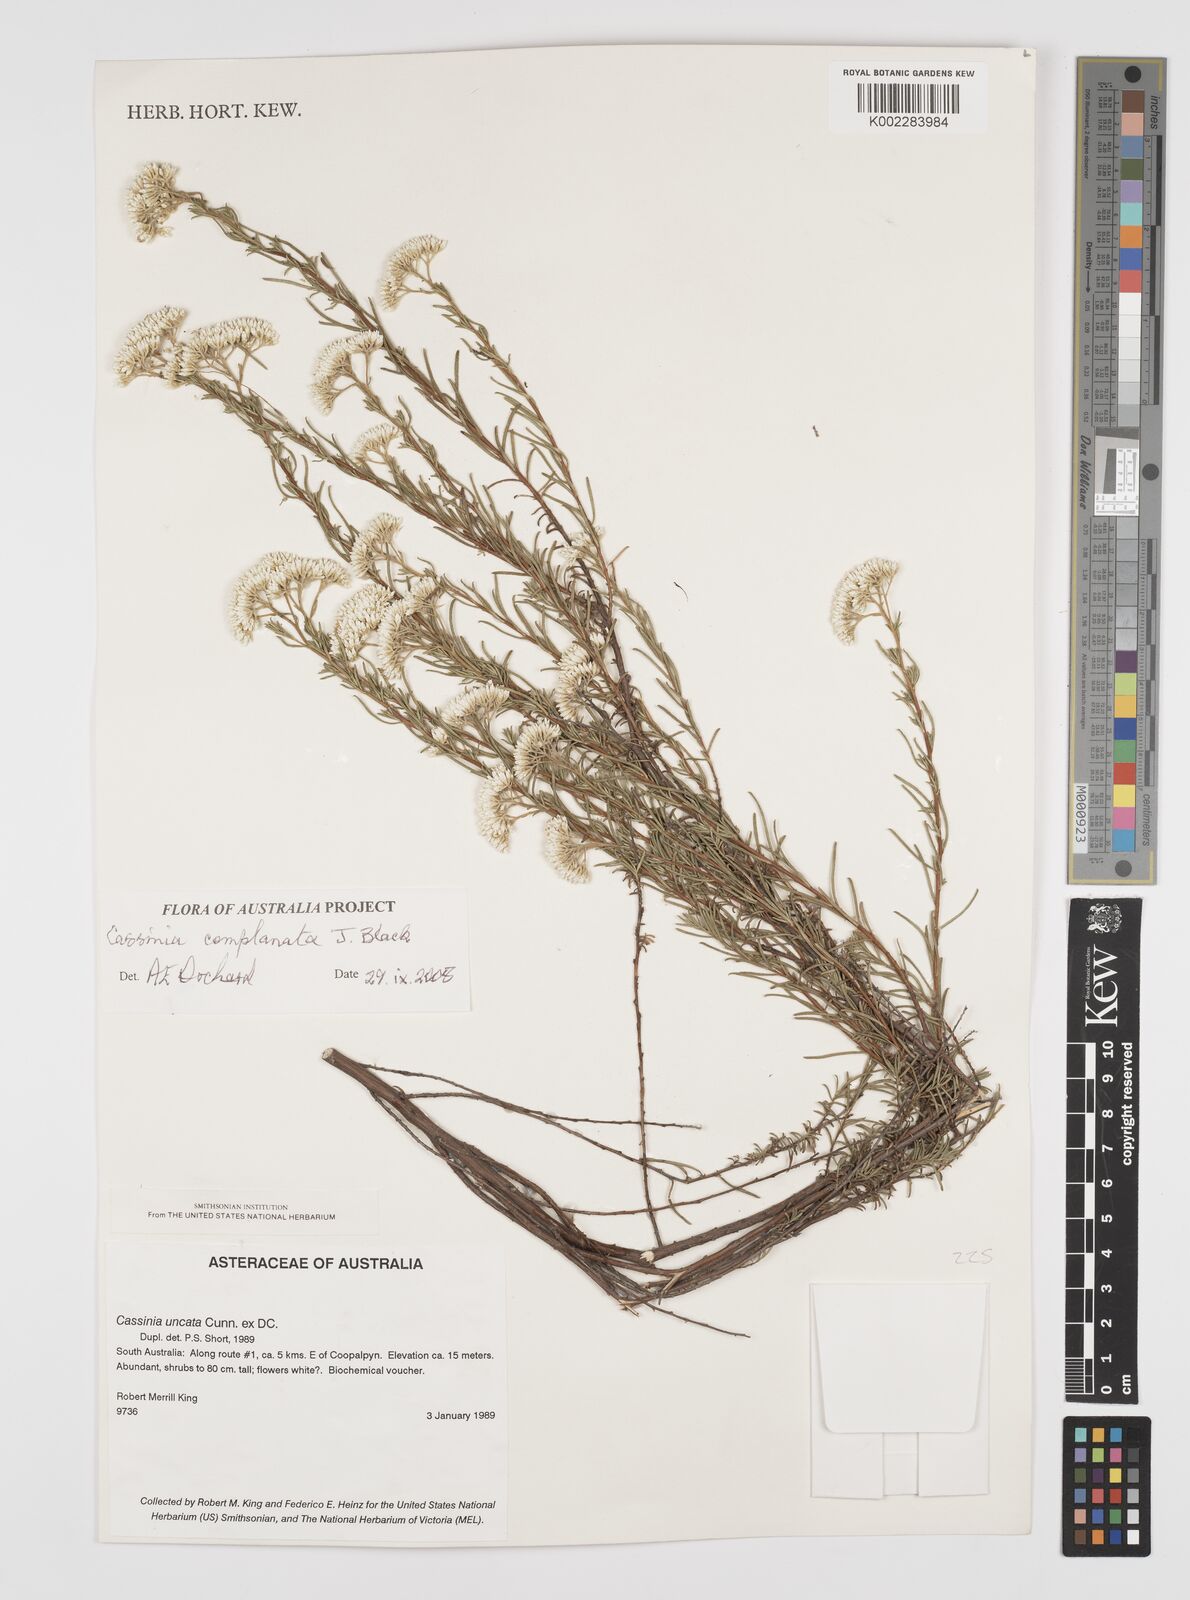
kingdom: Plantae
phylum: Tracheophyta
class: Magnoliopsida
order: Asterales
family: Asteraceae
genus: Cassinia
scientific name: Cassinia complanata
